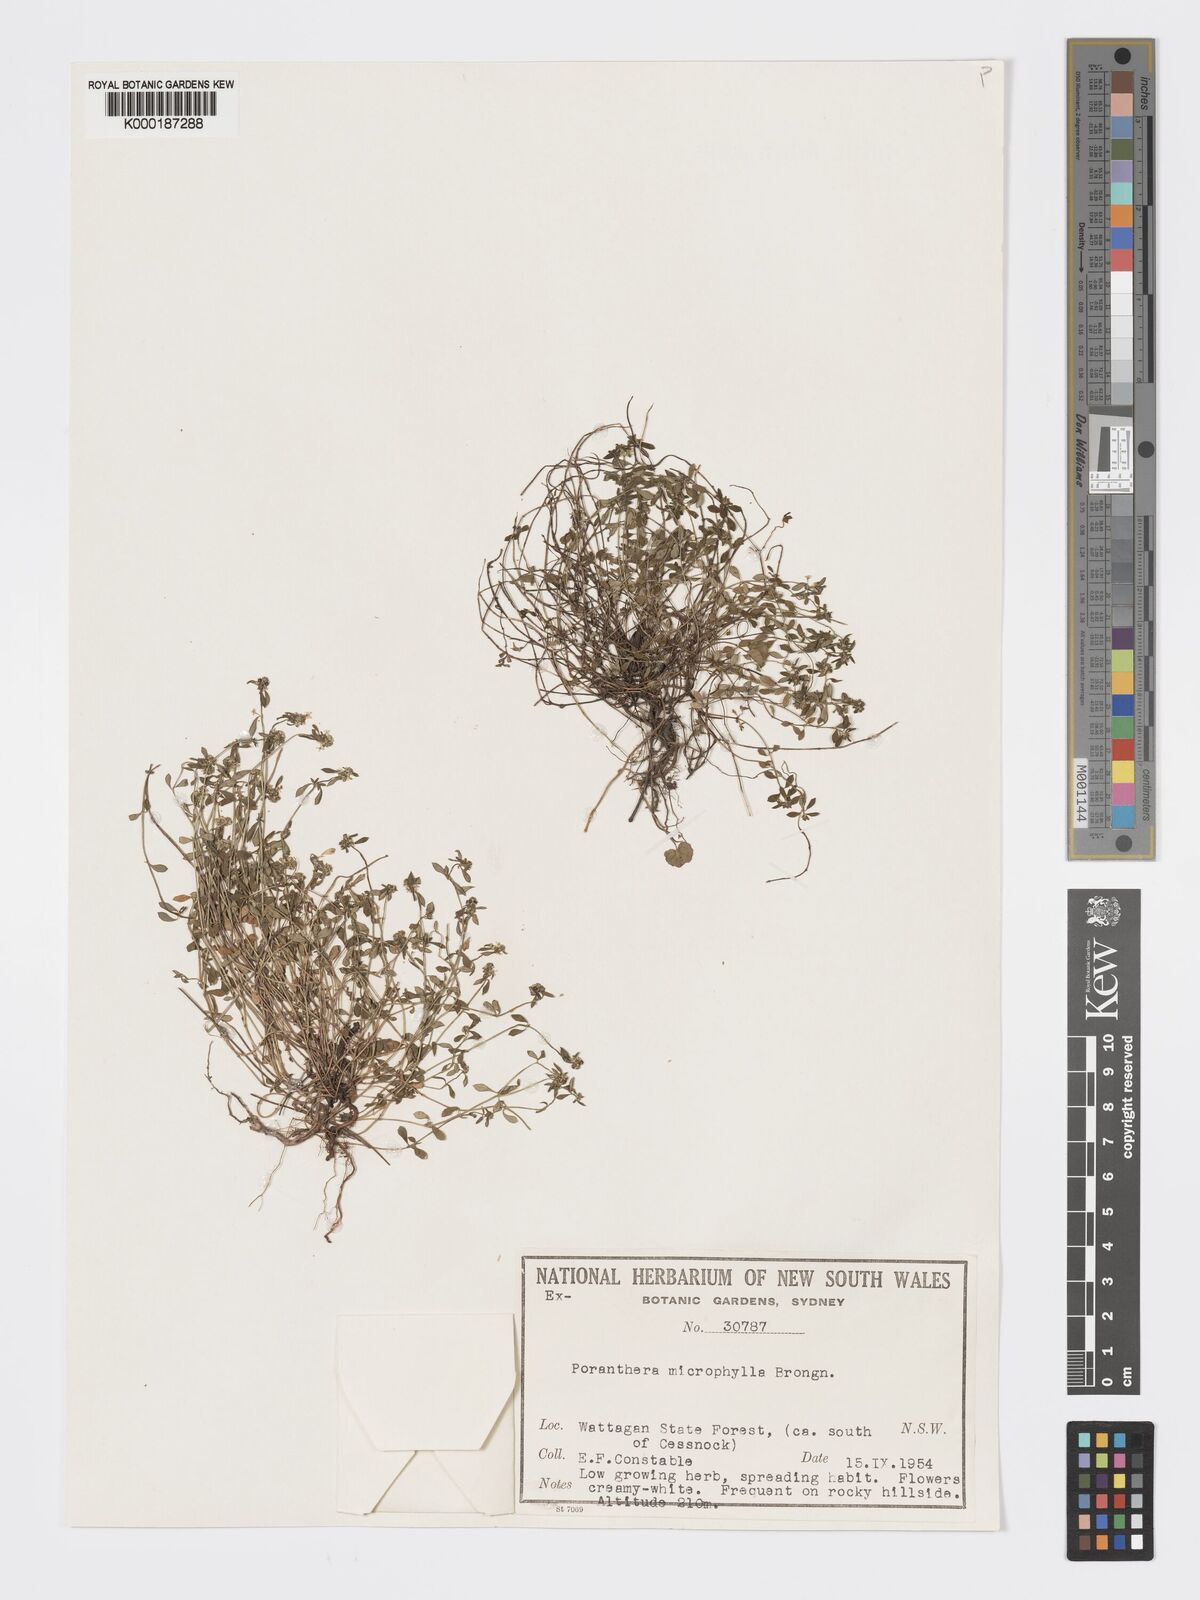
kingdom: Plantae
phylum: Tracheophyta
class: Magnoliopsida
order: Malpighiales
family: Phyllanthaceae
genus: Poranthera
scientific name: Poranthera microphylla
